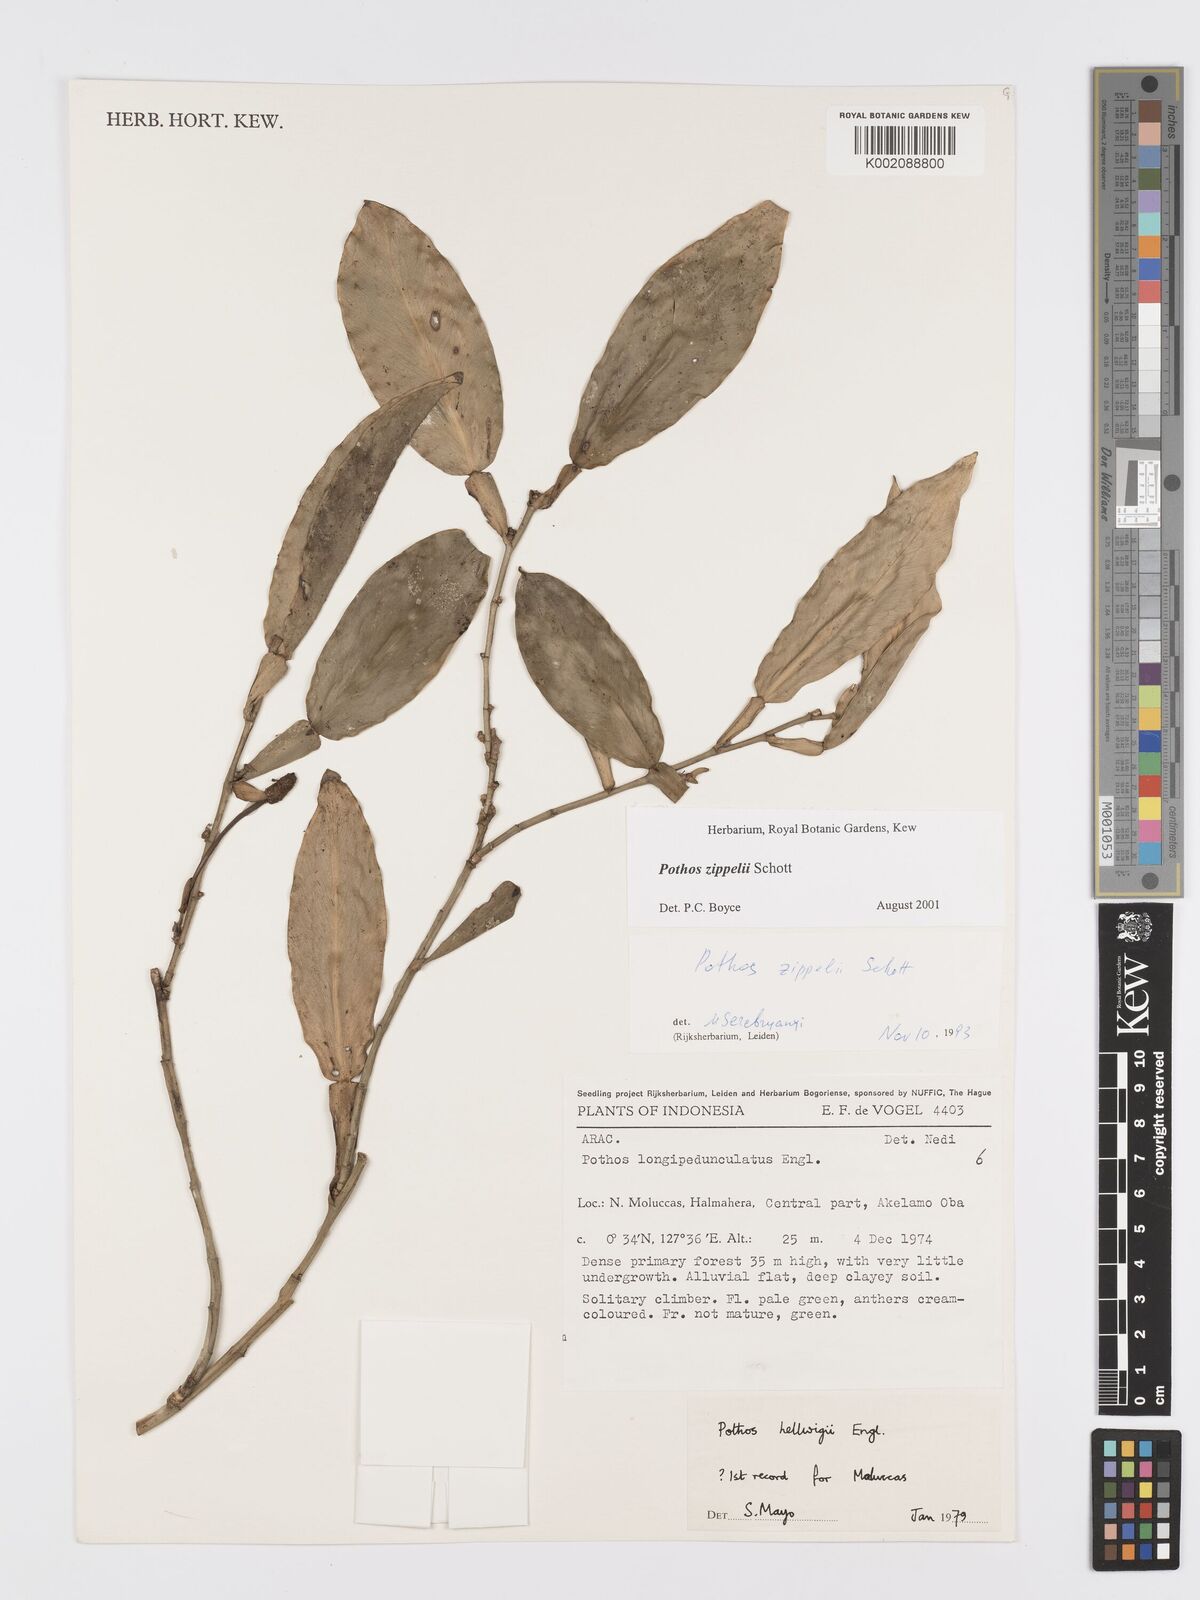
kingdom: Plantae
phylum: Tracheophyta
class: Liliopsida
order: Alismatales
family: Araceae
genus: Pothos
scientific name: Pothos zippelii
